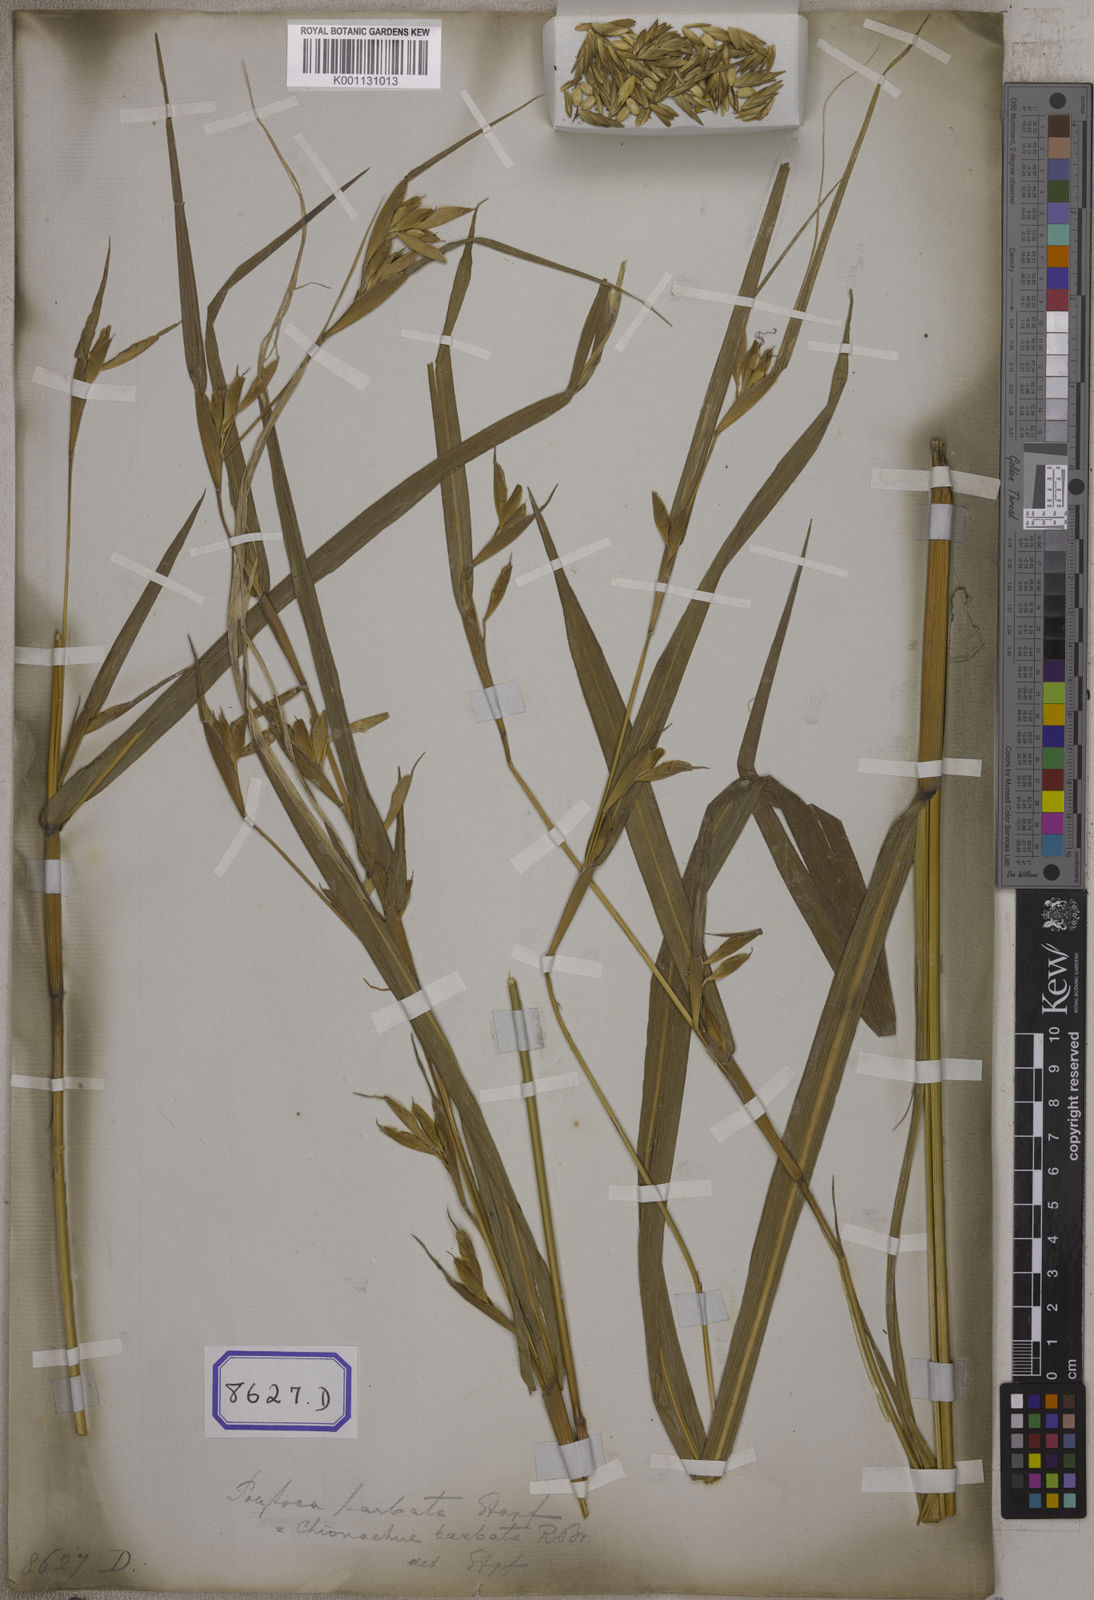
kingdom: Plantae
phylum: Tracheophyta
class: Liliopsida
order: Poales
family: Poaceae
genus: Polytoca
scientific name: Polytoca digitata
